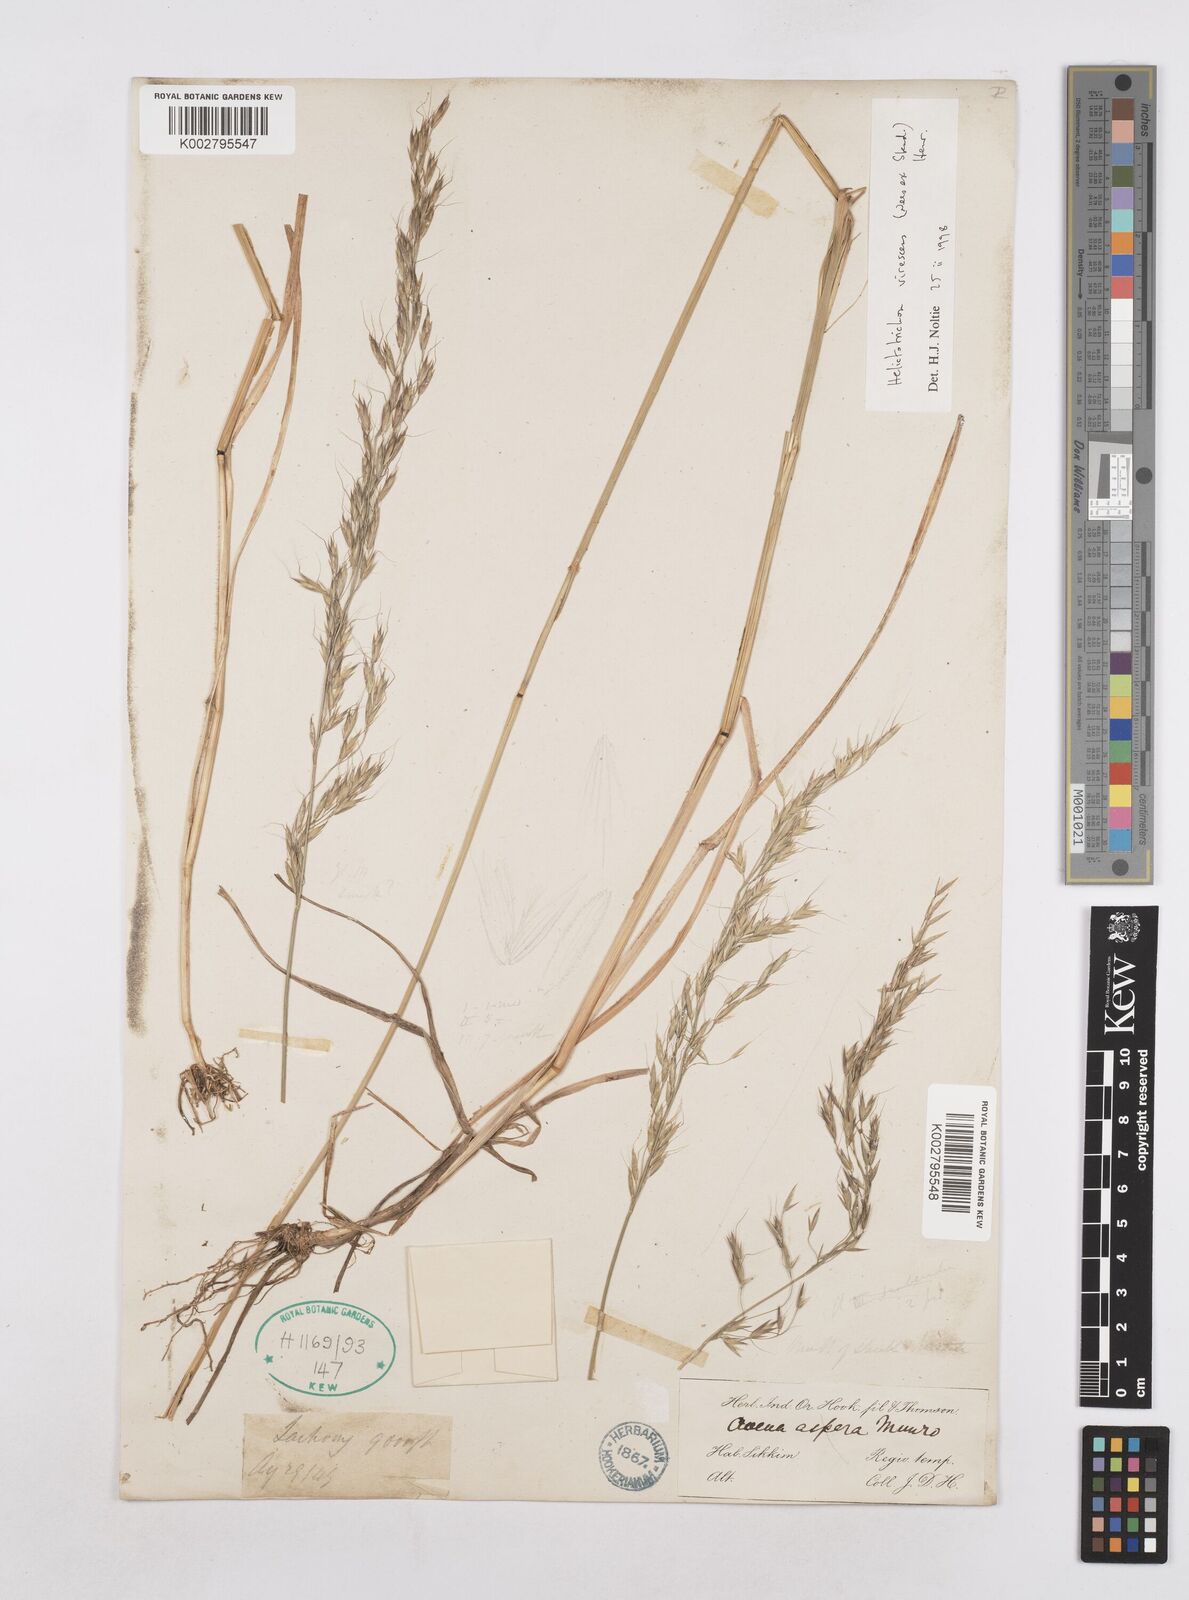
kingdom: Plantae
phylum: Tracheophyta
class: Liliopsida
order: Poales
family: Poaceae
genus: Trisetopsis
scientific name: Trisetopsis junghuhnii
